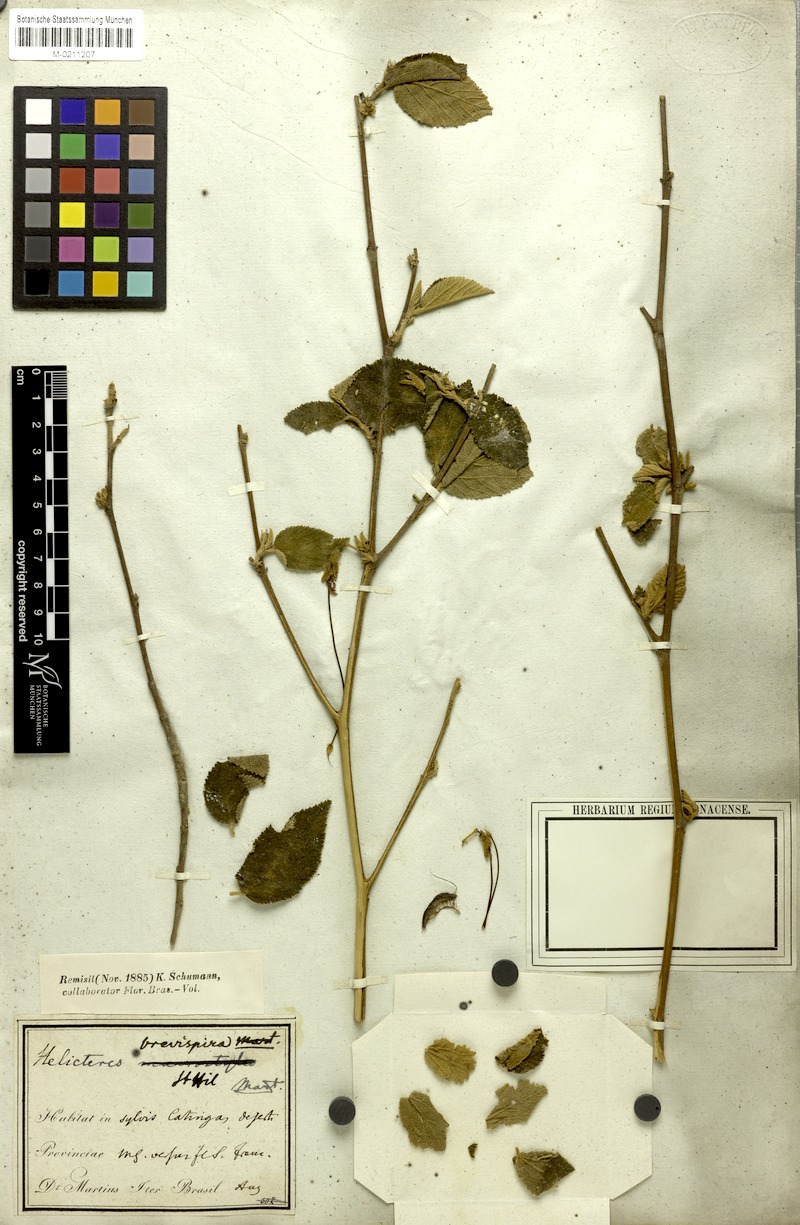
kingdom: Plantae
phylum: Tracheophyta
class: Magnoliopsida
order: Malvales
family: Malvaceae
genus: Helicteres
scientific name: Helicteres brevispira
